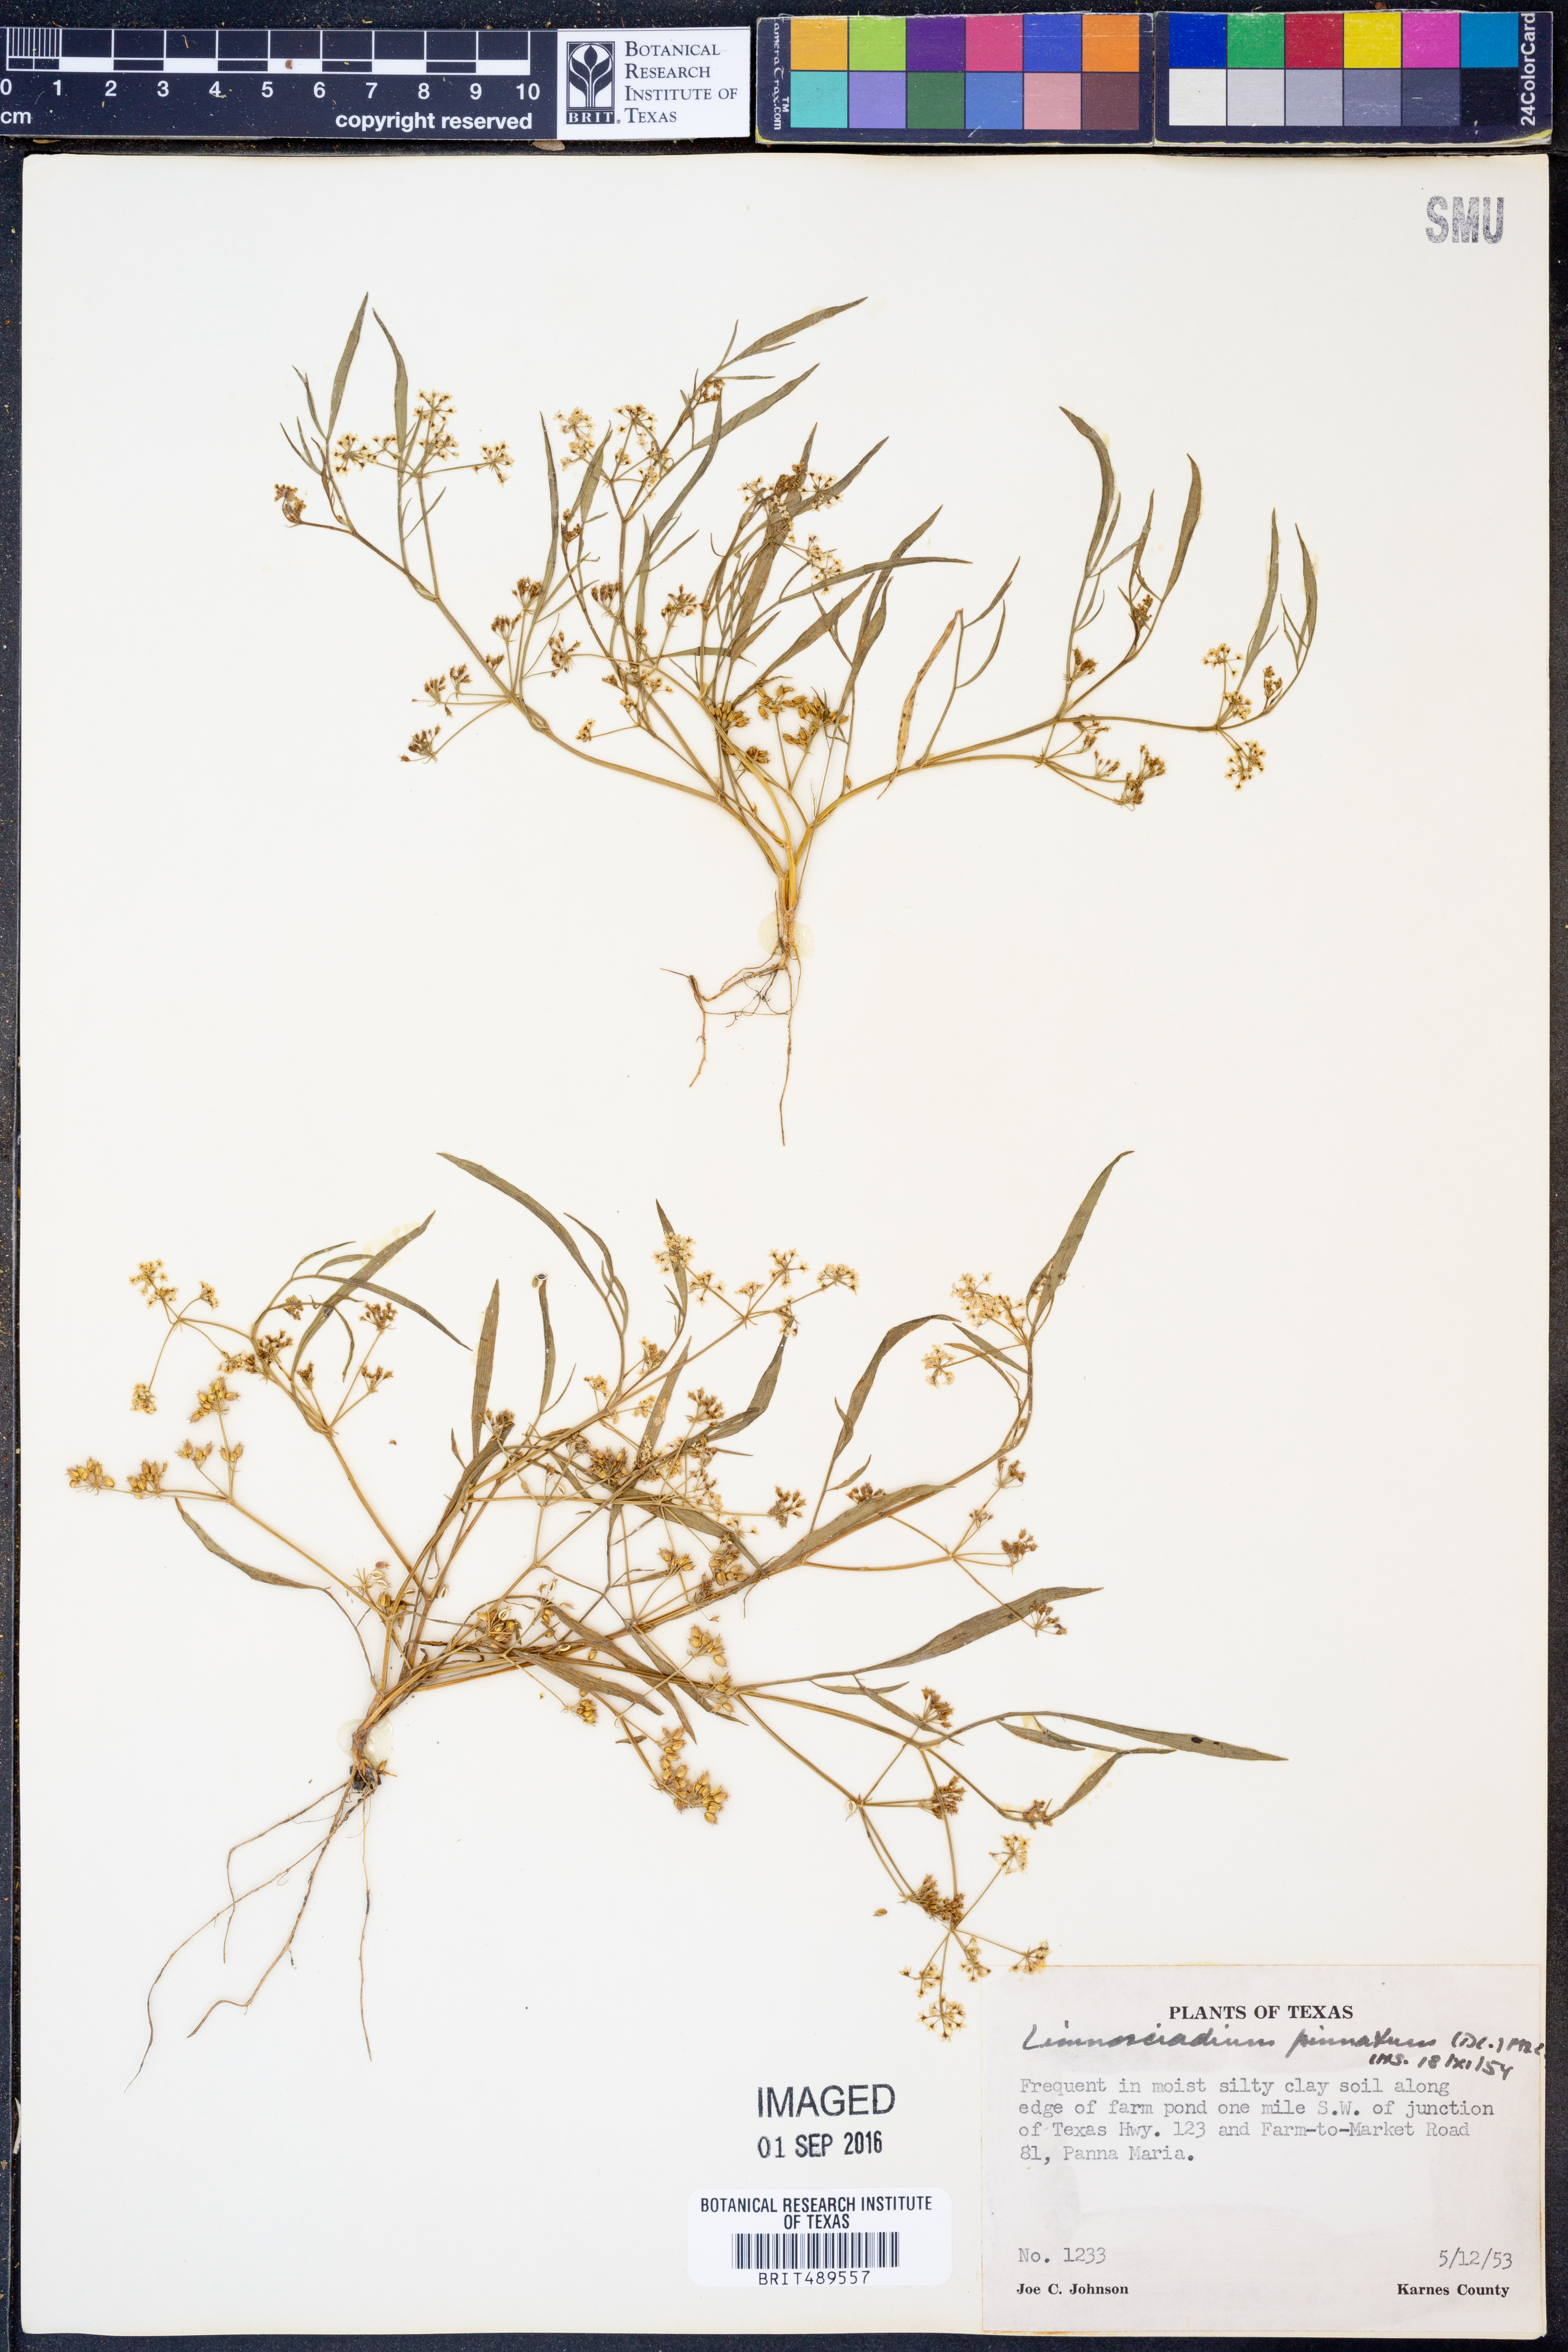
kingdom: Plantae
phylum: Tracheophyta
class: Magnoliopsida
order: Apiales
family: Apiaceae
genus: Limnosciadium
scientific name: Limnosciadium pinnatum
